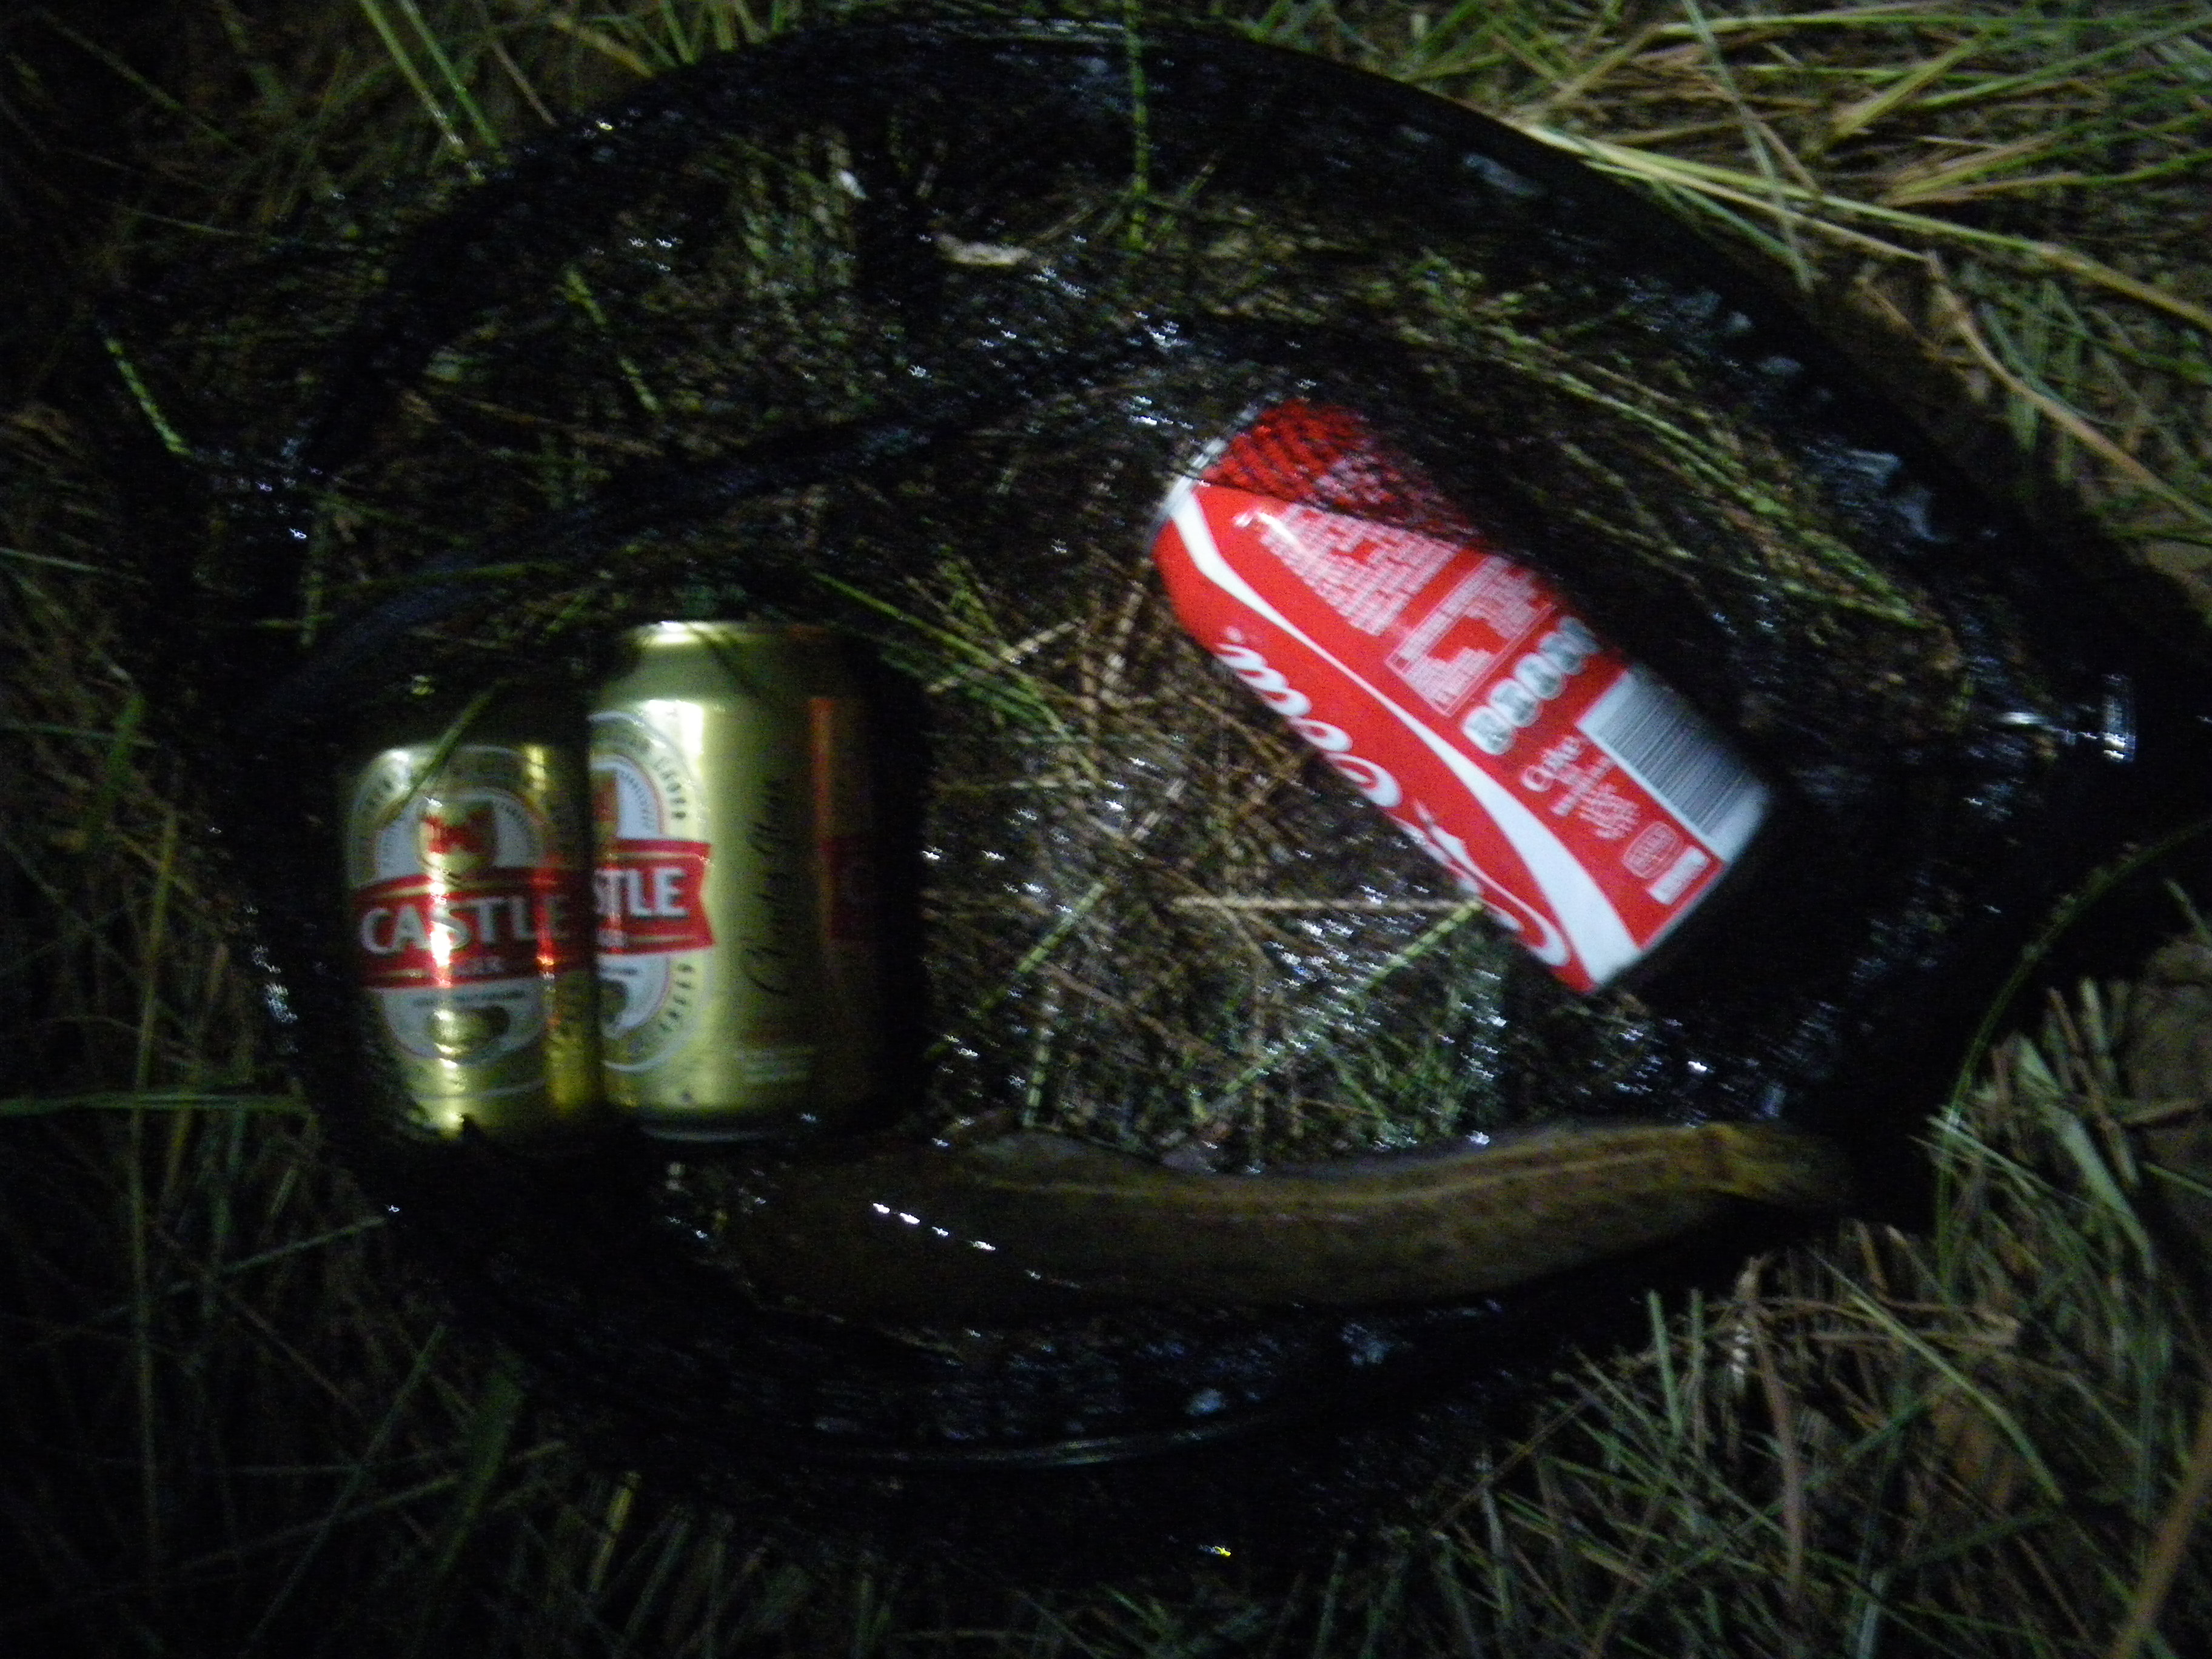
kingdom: Animalia
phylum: Chordata
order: Siluriformes
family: Clariidae
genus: Clarias
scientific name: Clarias stappersii
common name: Blotched catfish
